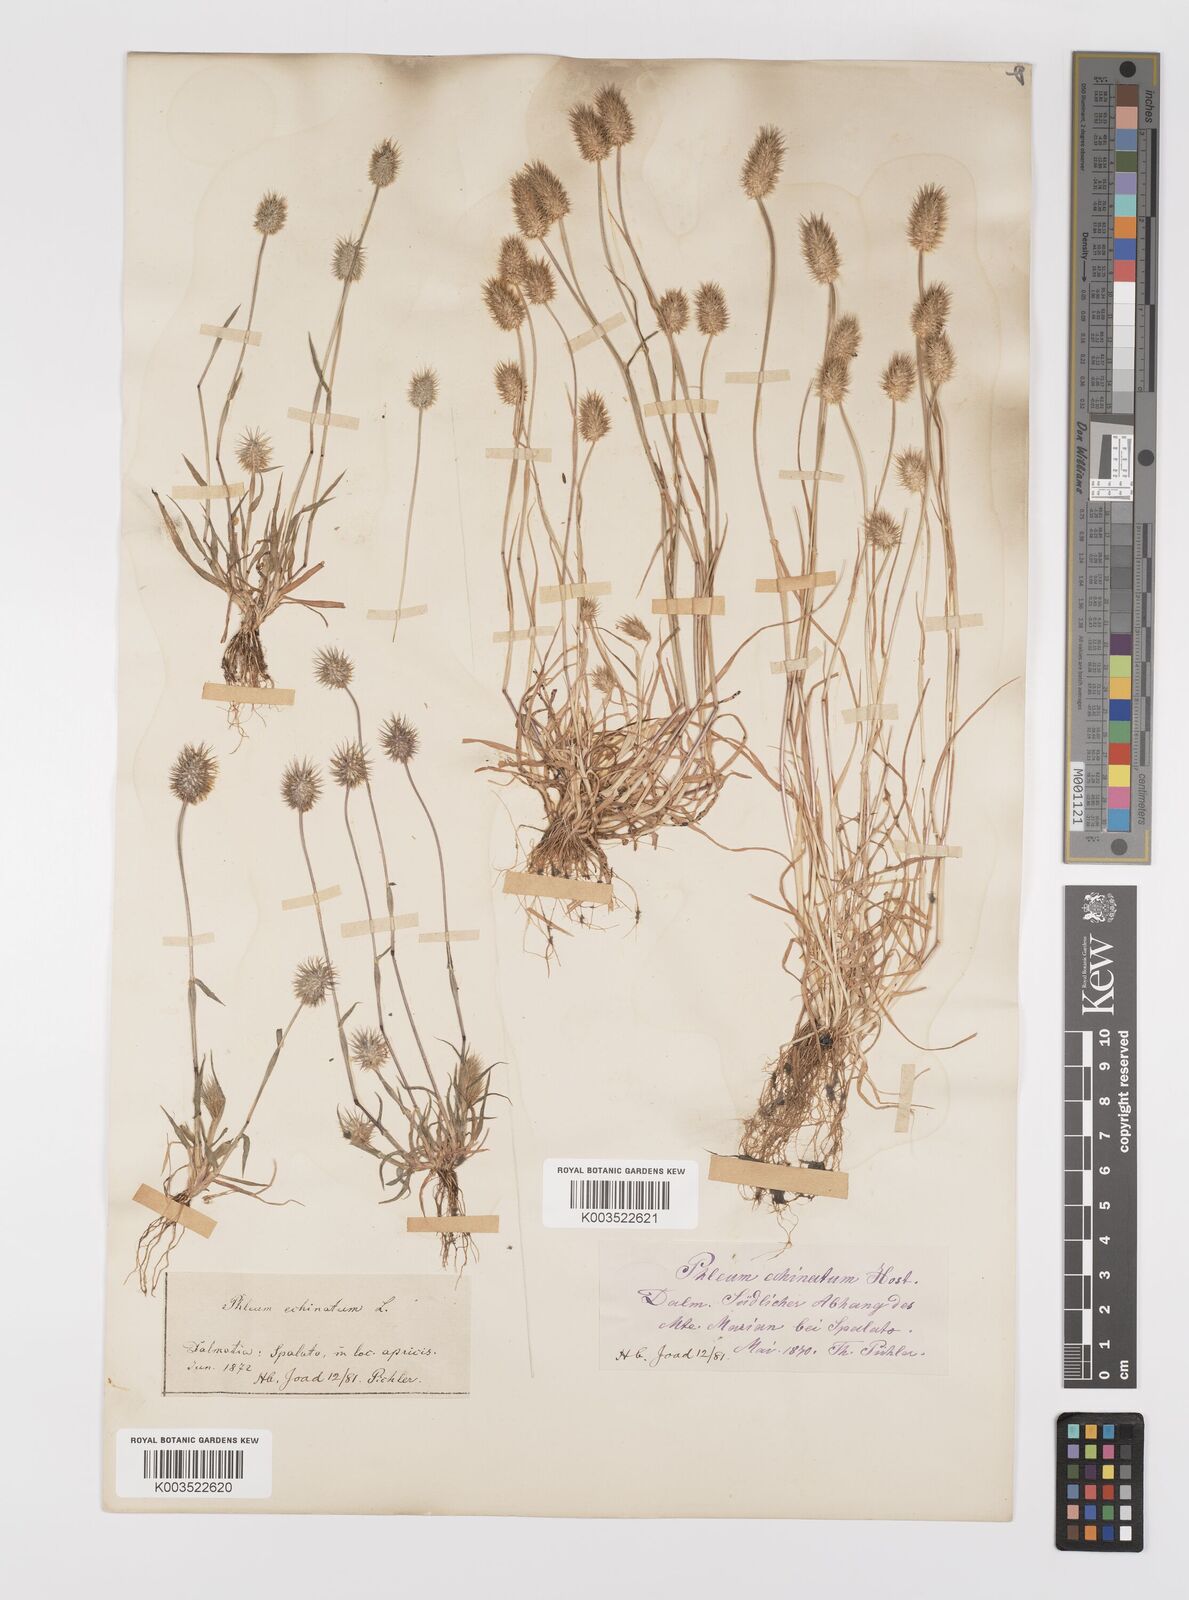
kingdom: Plantae
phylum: Tracheophyta
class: Liliopsida
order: Poales
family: Poaceae
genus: Phleum
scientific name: Phleum echinatum
